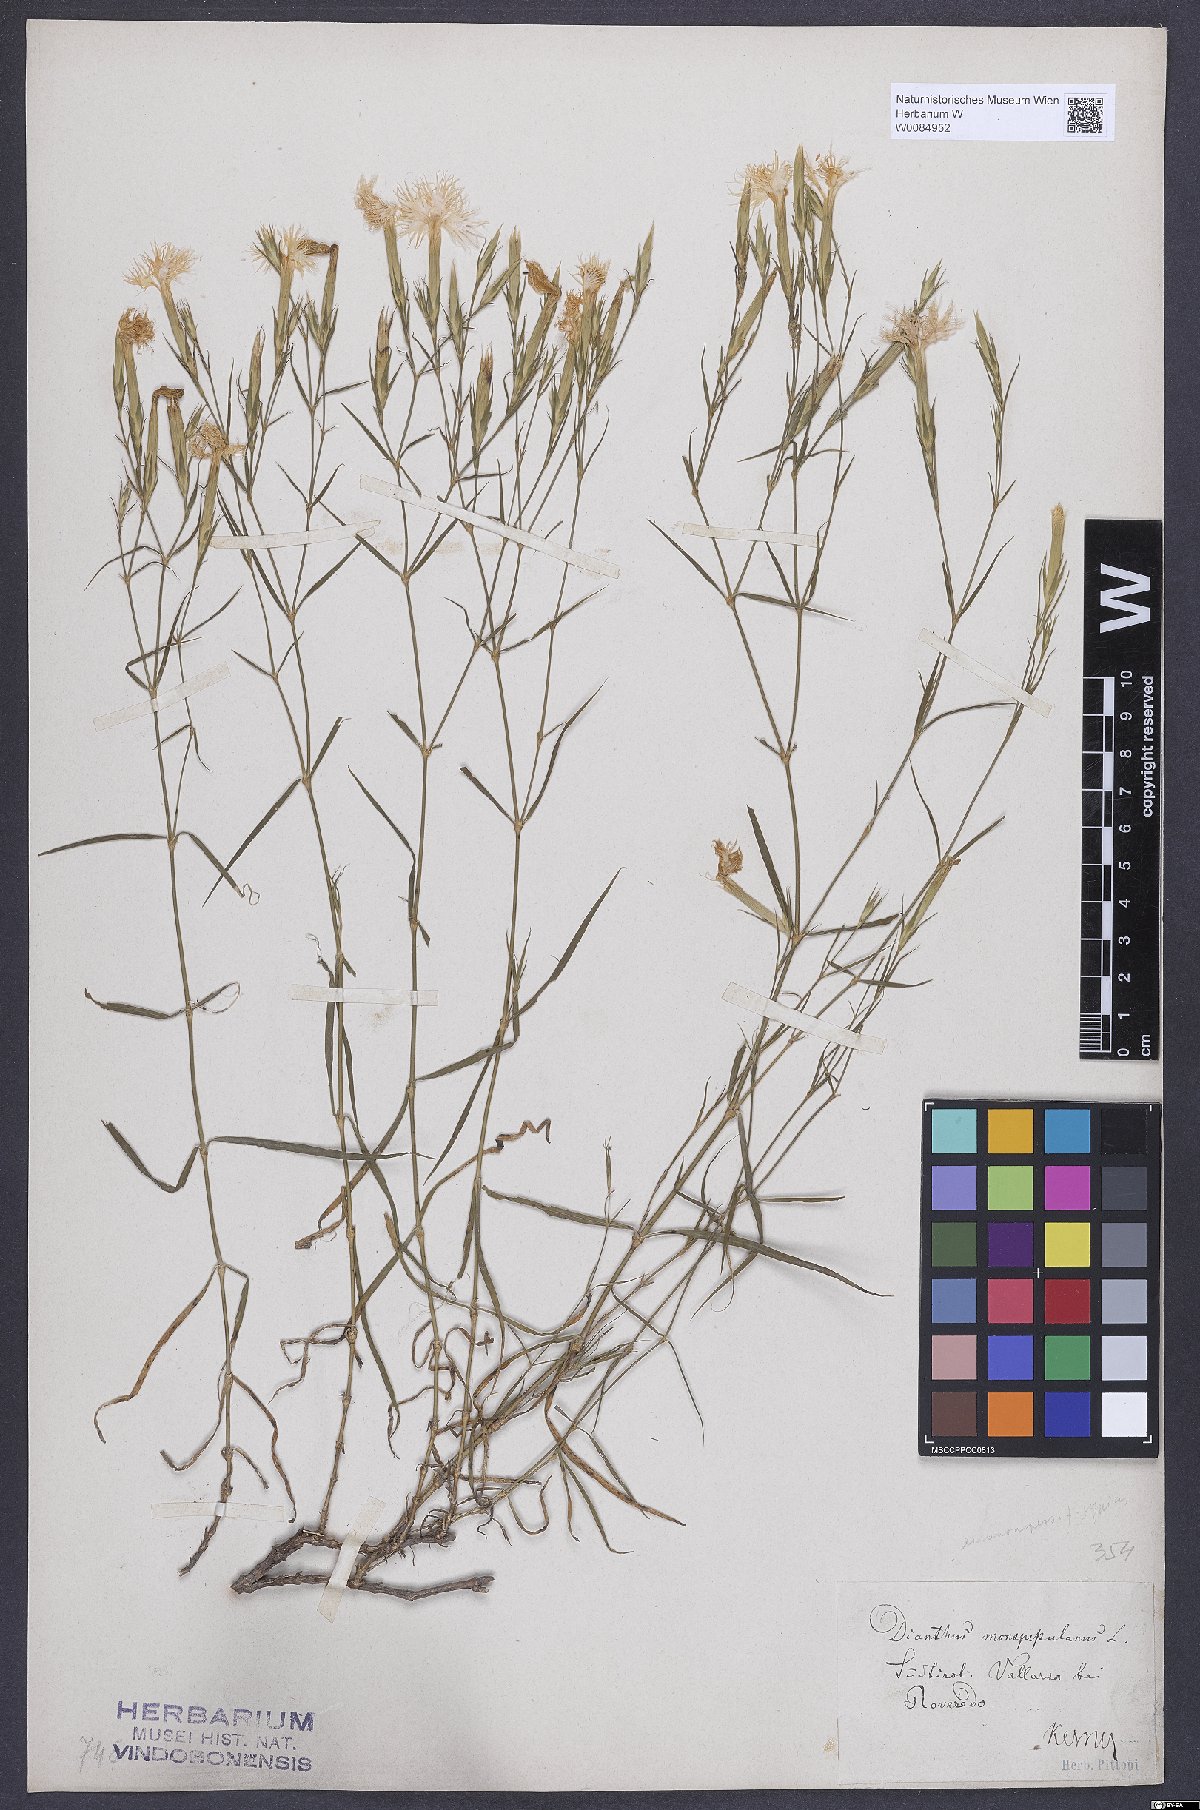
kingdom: Plantae
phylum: Tracheophyta
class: Magnoliopsida
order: Caryophyllales
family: Caryophyllaceae
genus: Dianthus
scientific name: Dianthus hyssopifolius
